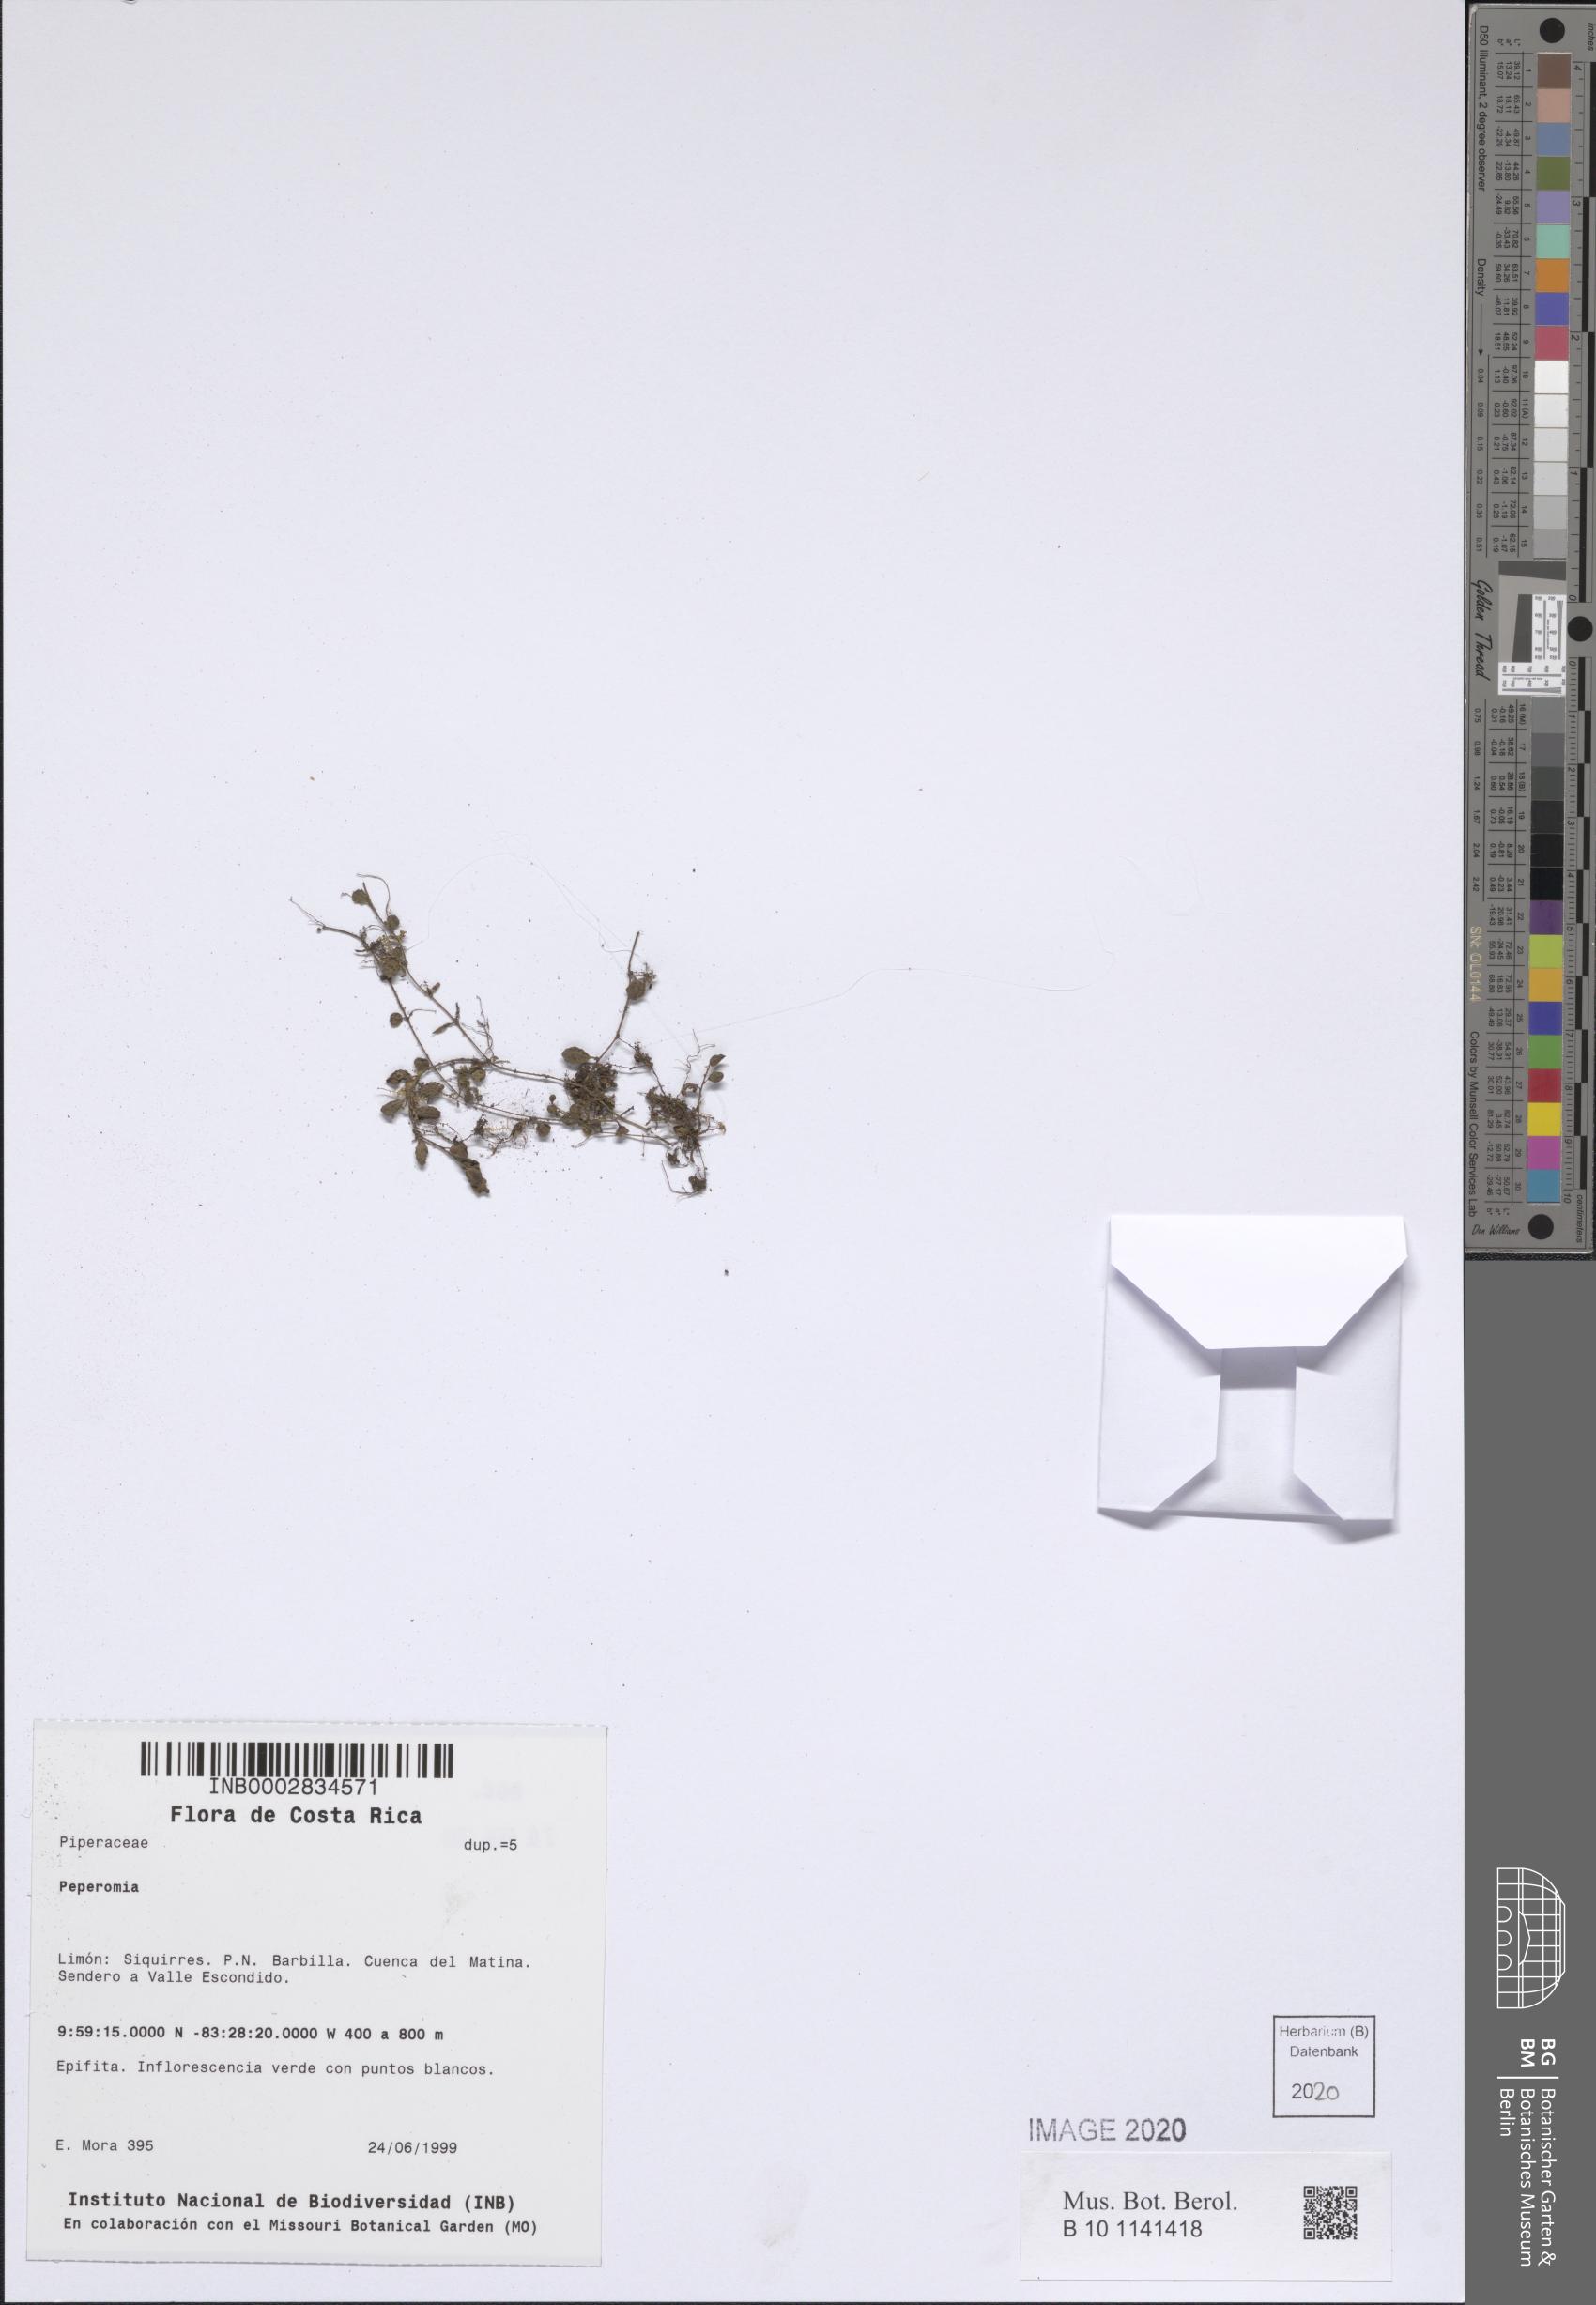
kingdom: Plantae
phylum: Tracheophyta
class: Magnoliopsida
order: Piperales
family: Piperaceae
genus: Peperomia
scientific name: Peperomia
